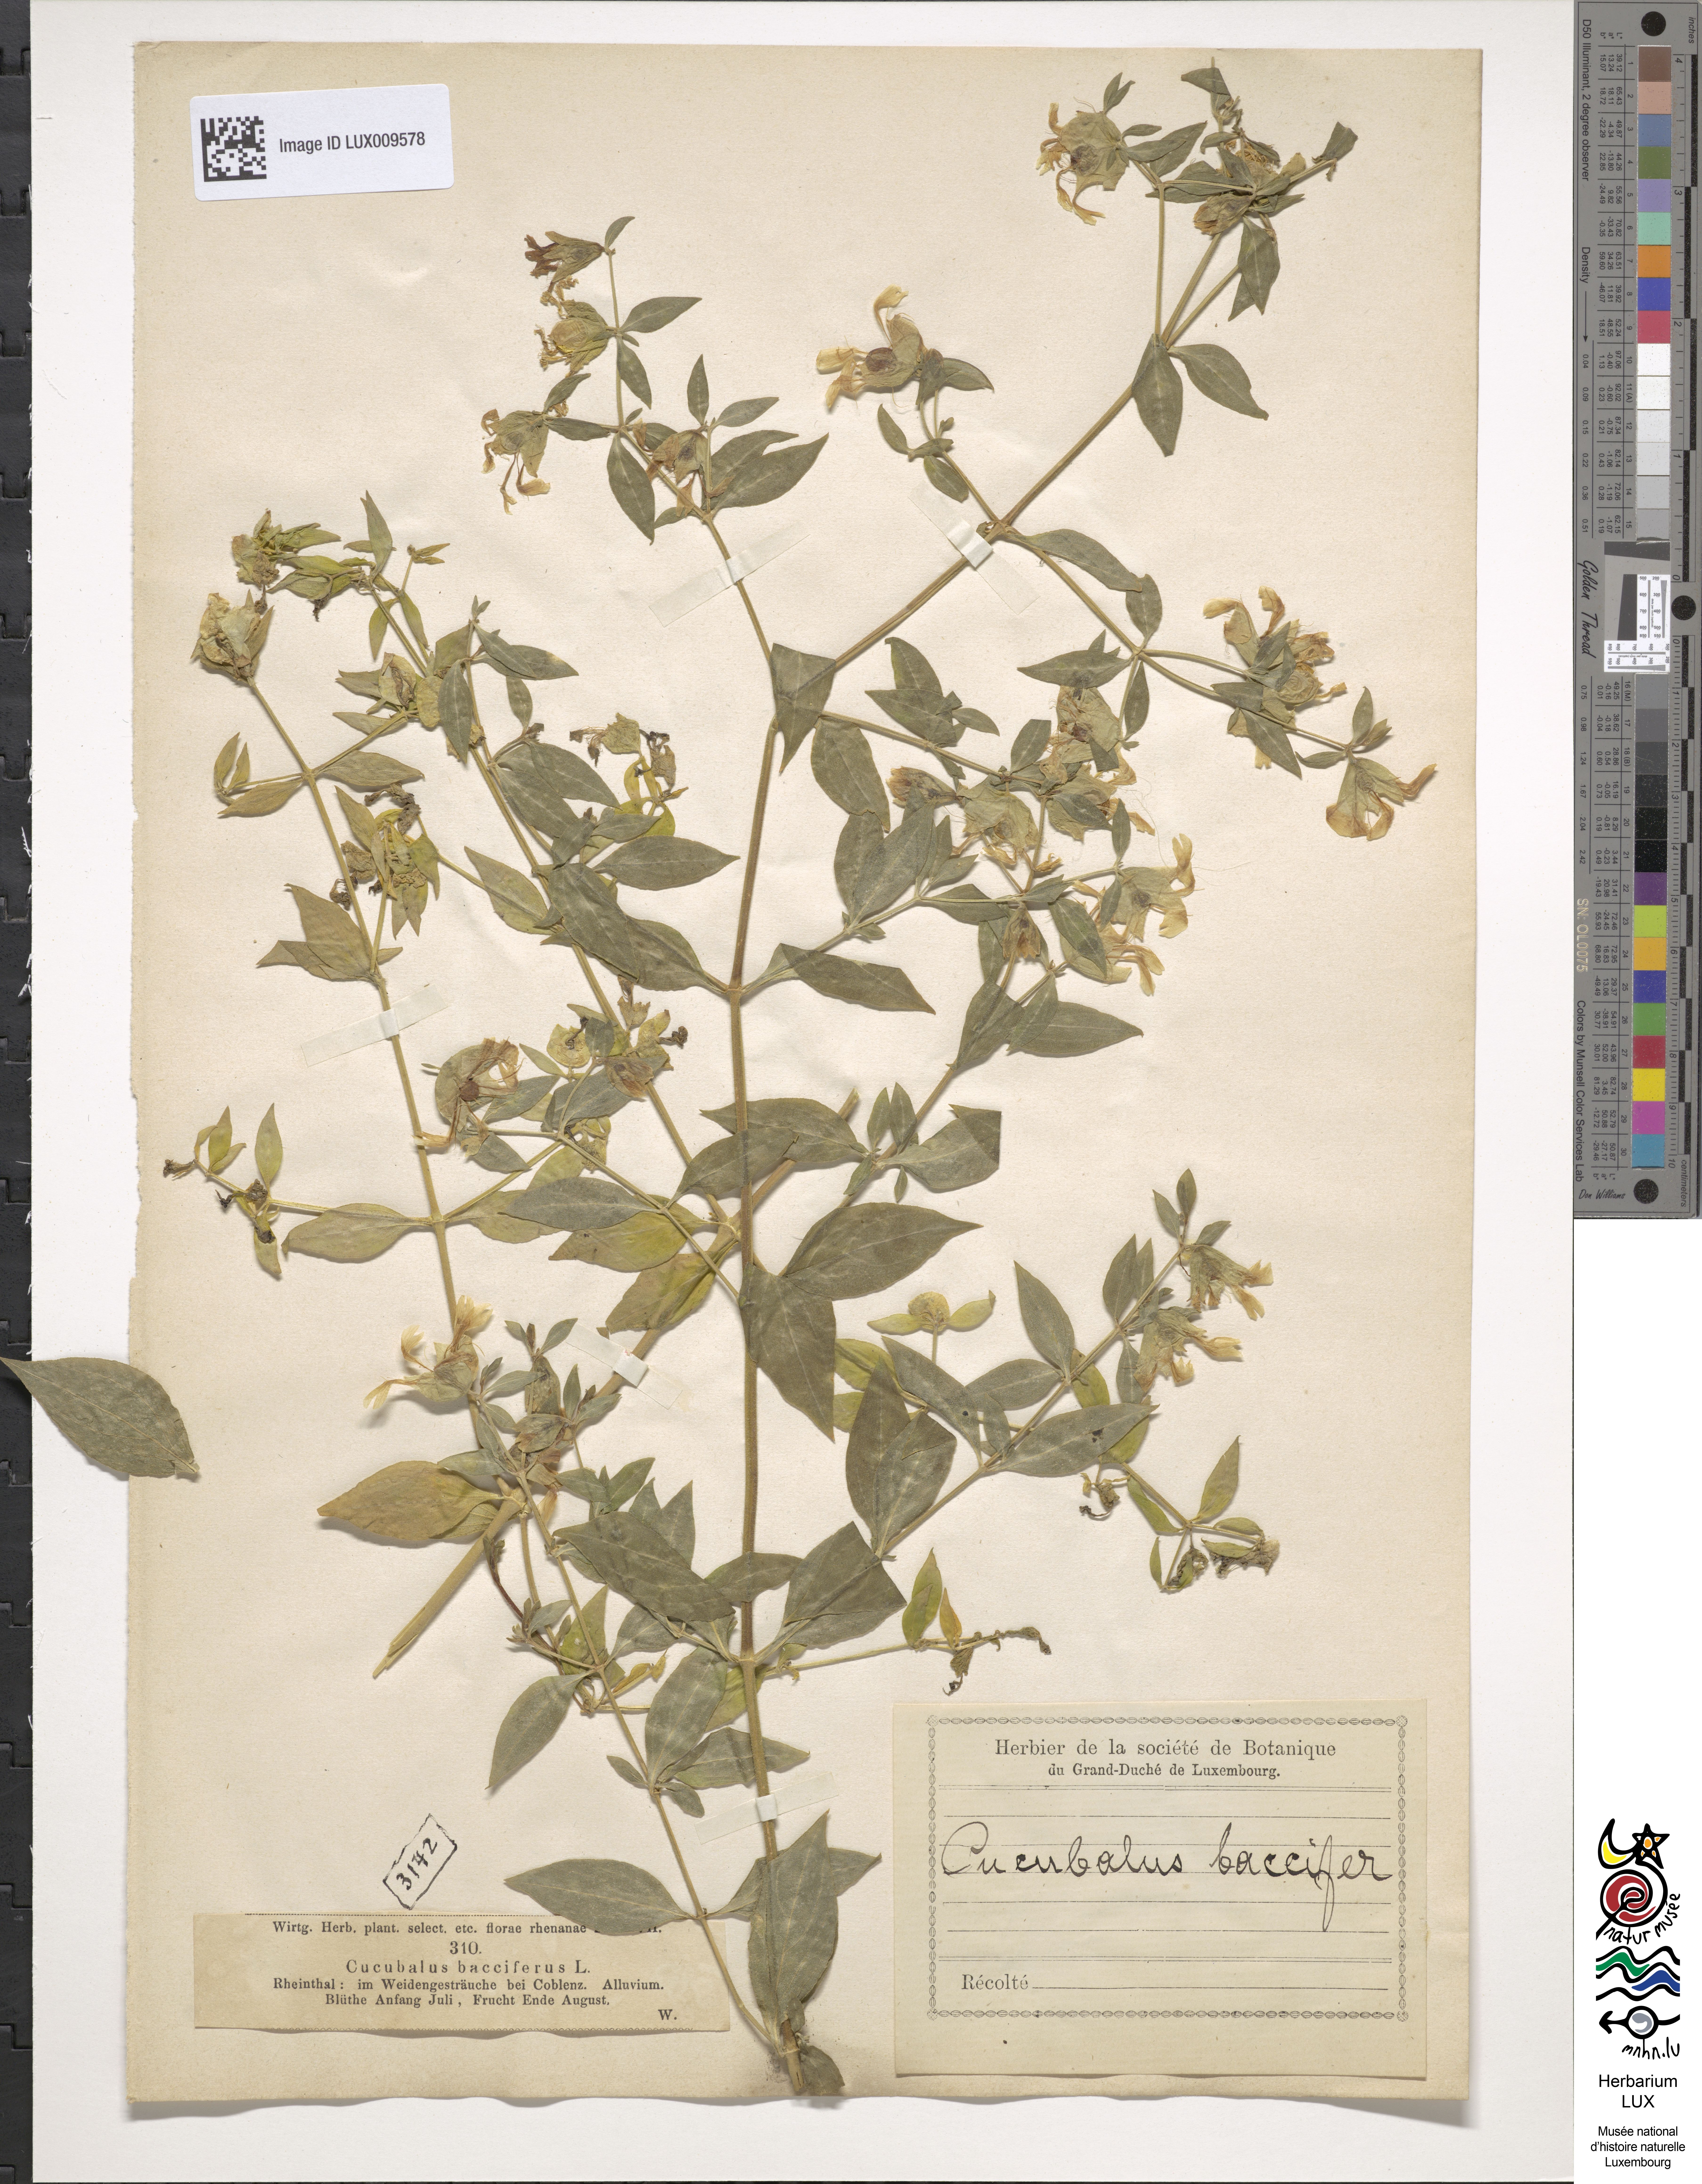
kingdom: Plantae
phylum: Tracheophyta
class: Magnoliopsida
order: Caryophyllales
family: Caryophyllaceae
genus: Silene
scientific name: Silene baccifera
